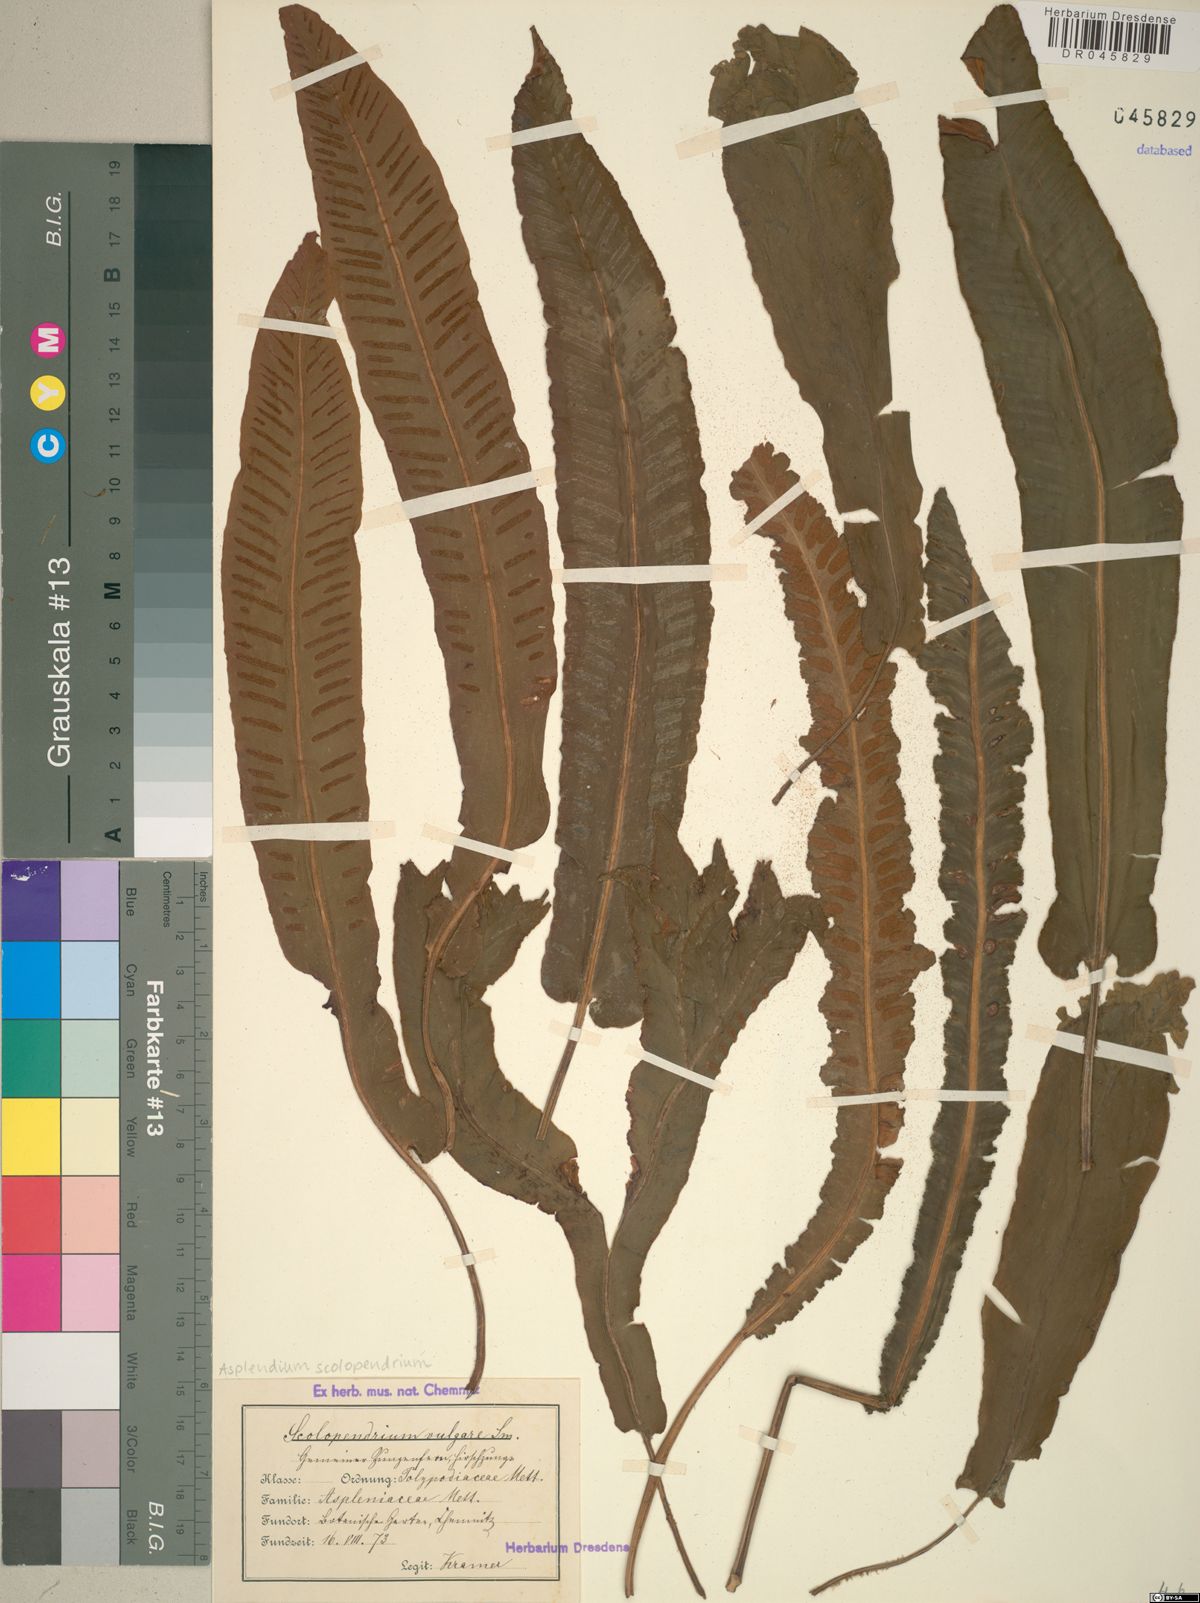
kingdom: Plantae
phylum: Tracheophyta
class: Polypodiopsida
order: Polypodiales
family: Aspleniaceae
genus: Asplenium
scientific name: Asplenium scolopendrium
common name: Hart's-tongue fern
